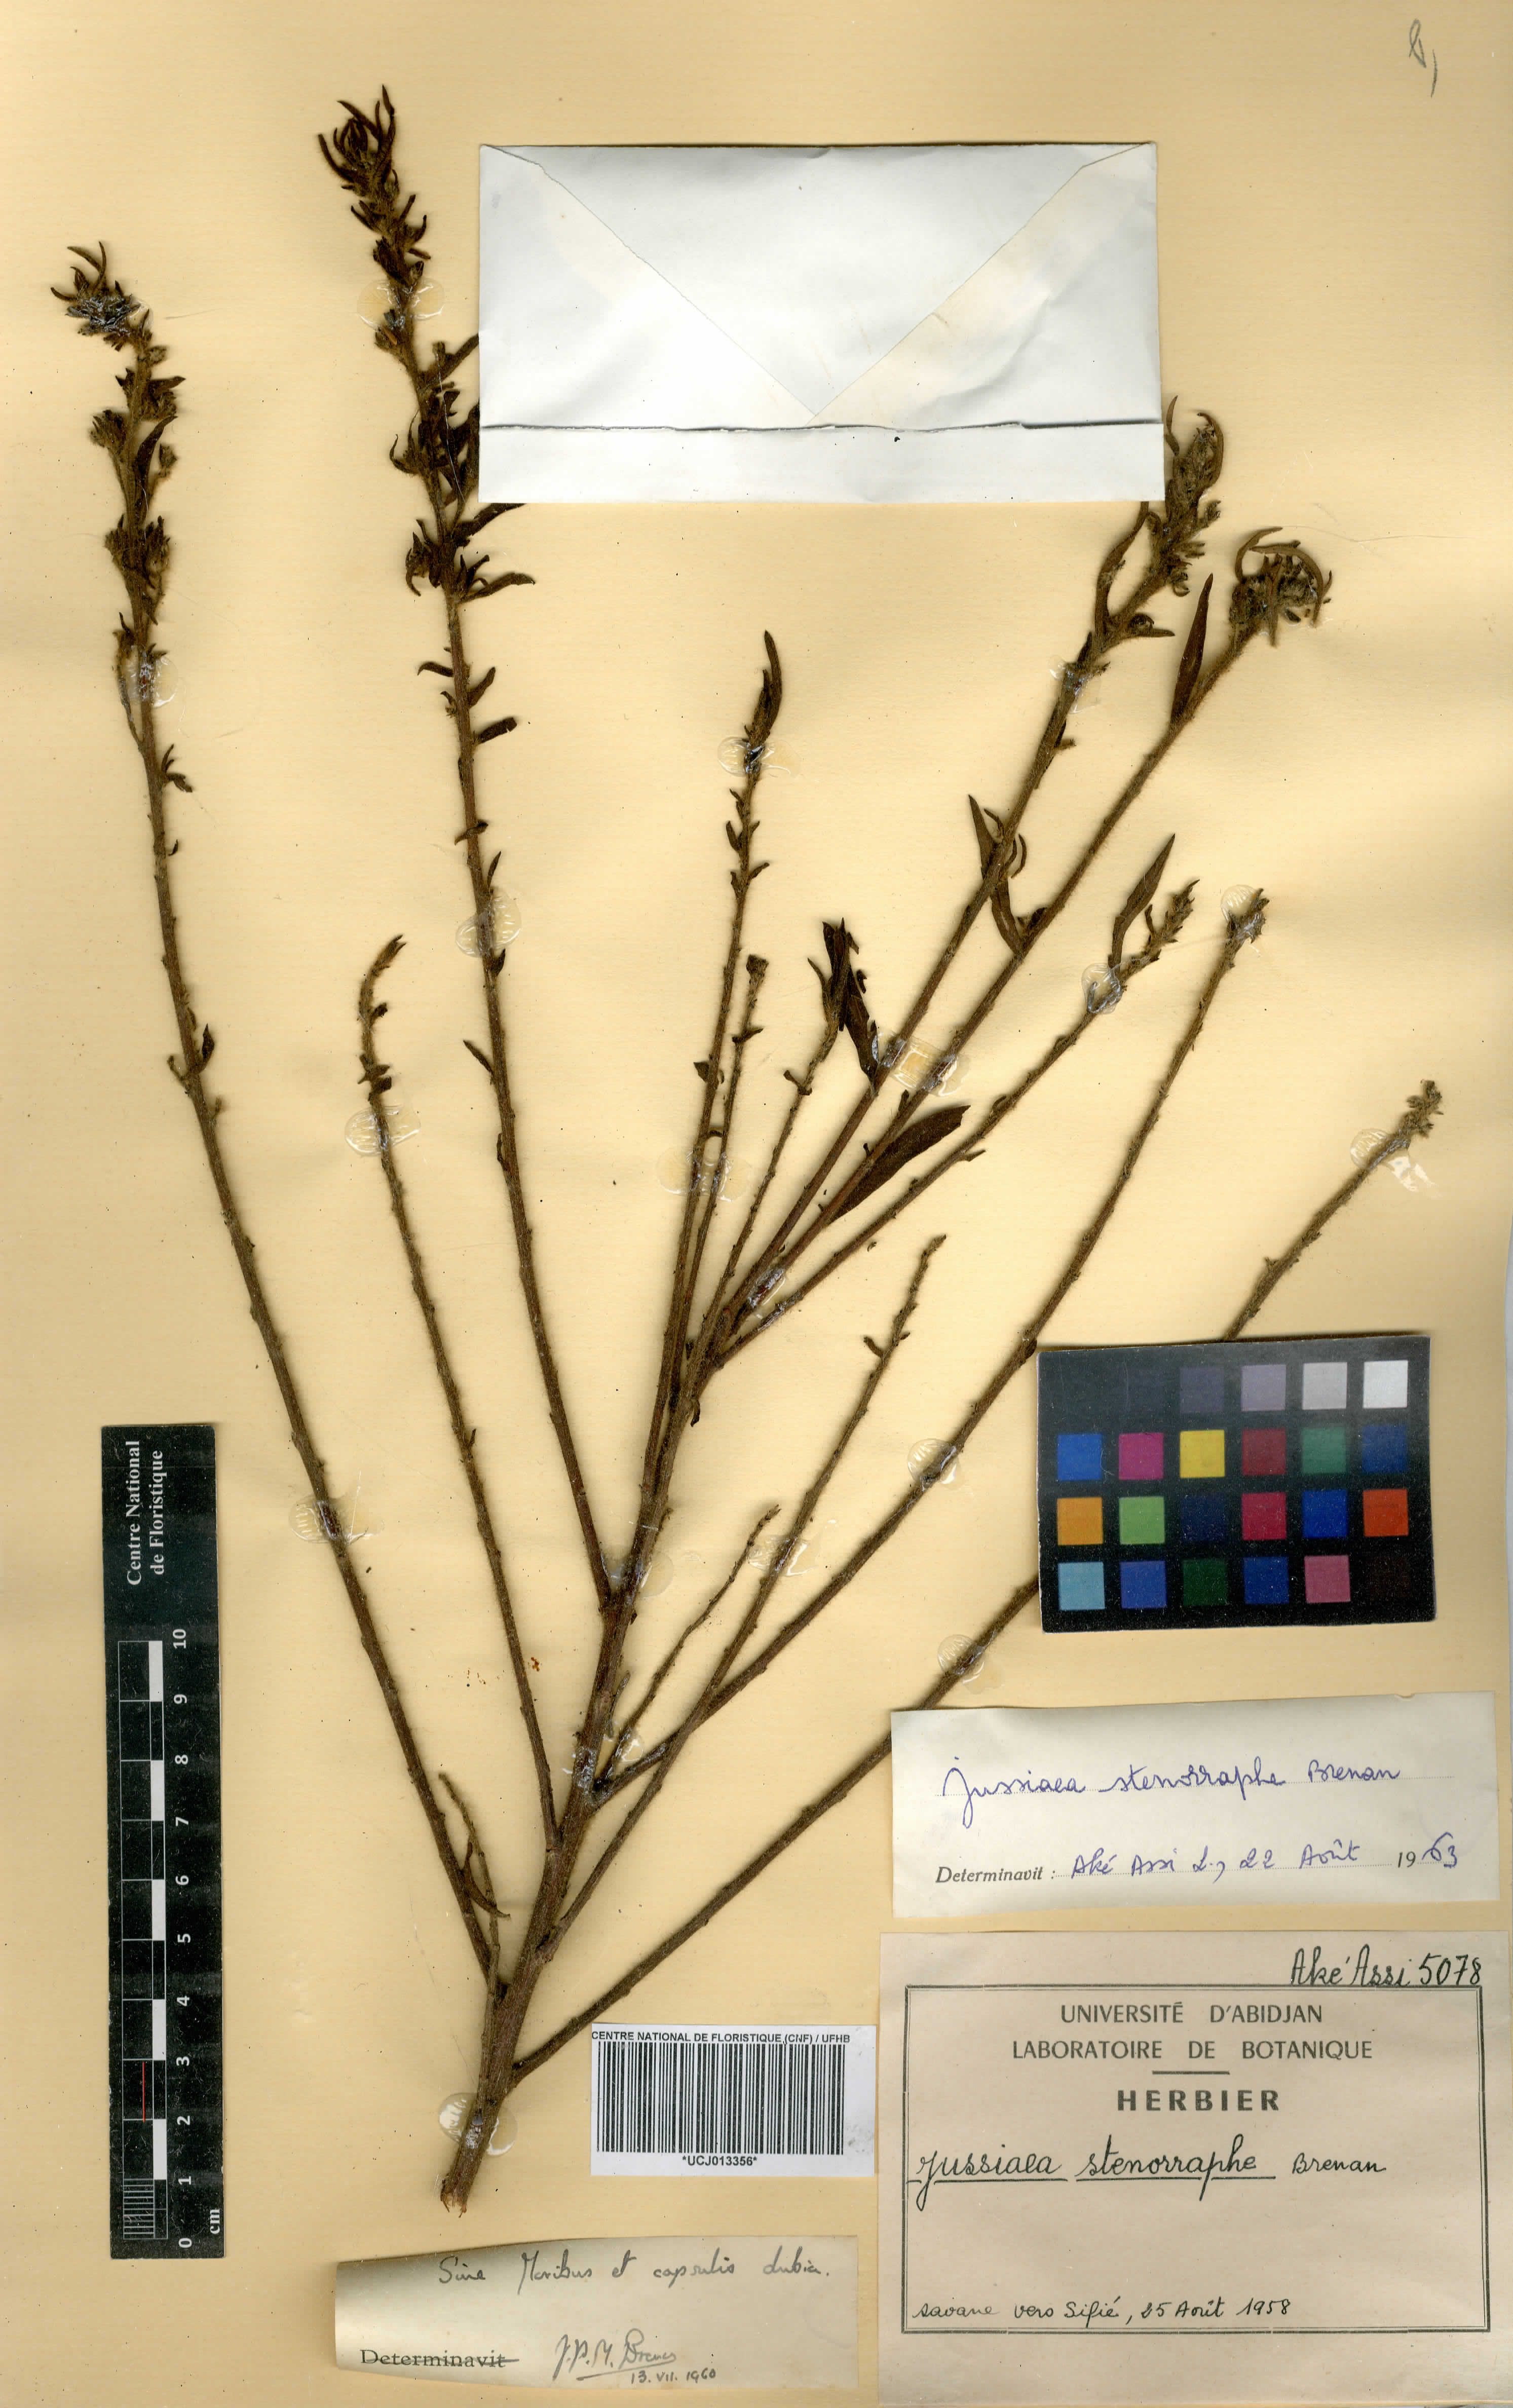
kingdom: Plantae
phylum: Tracheophyta
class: Magnoliopsida
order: Myrtales
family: Onagraceae
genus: Ludwigia
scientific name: Ludwigia senegalensis
